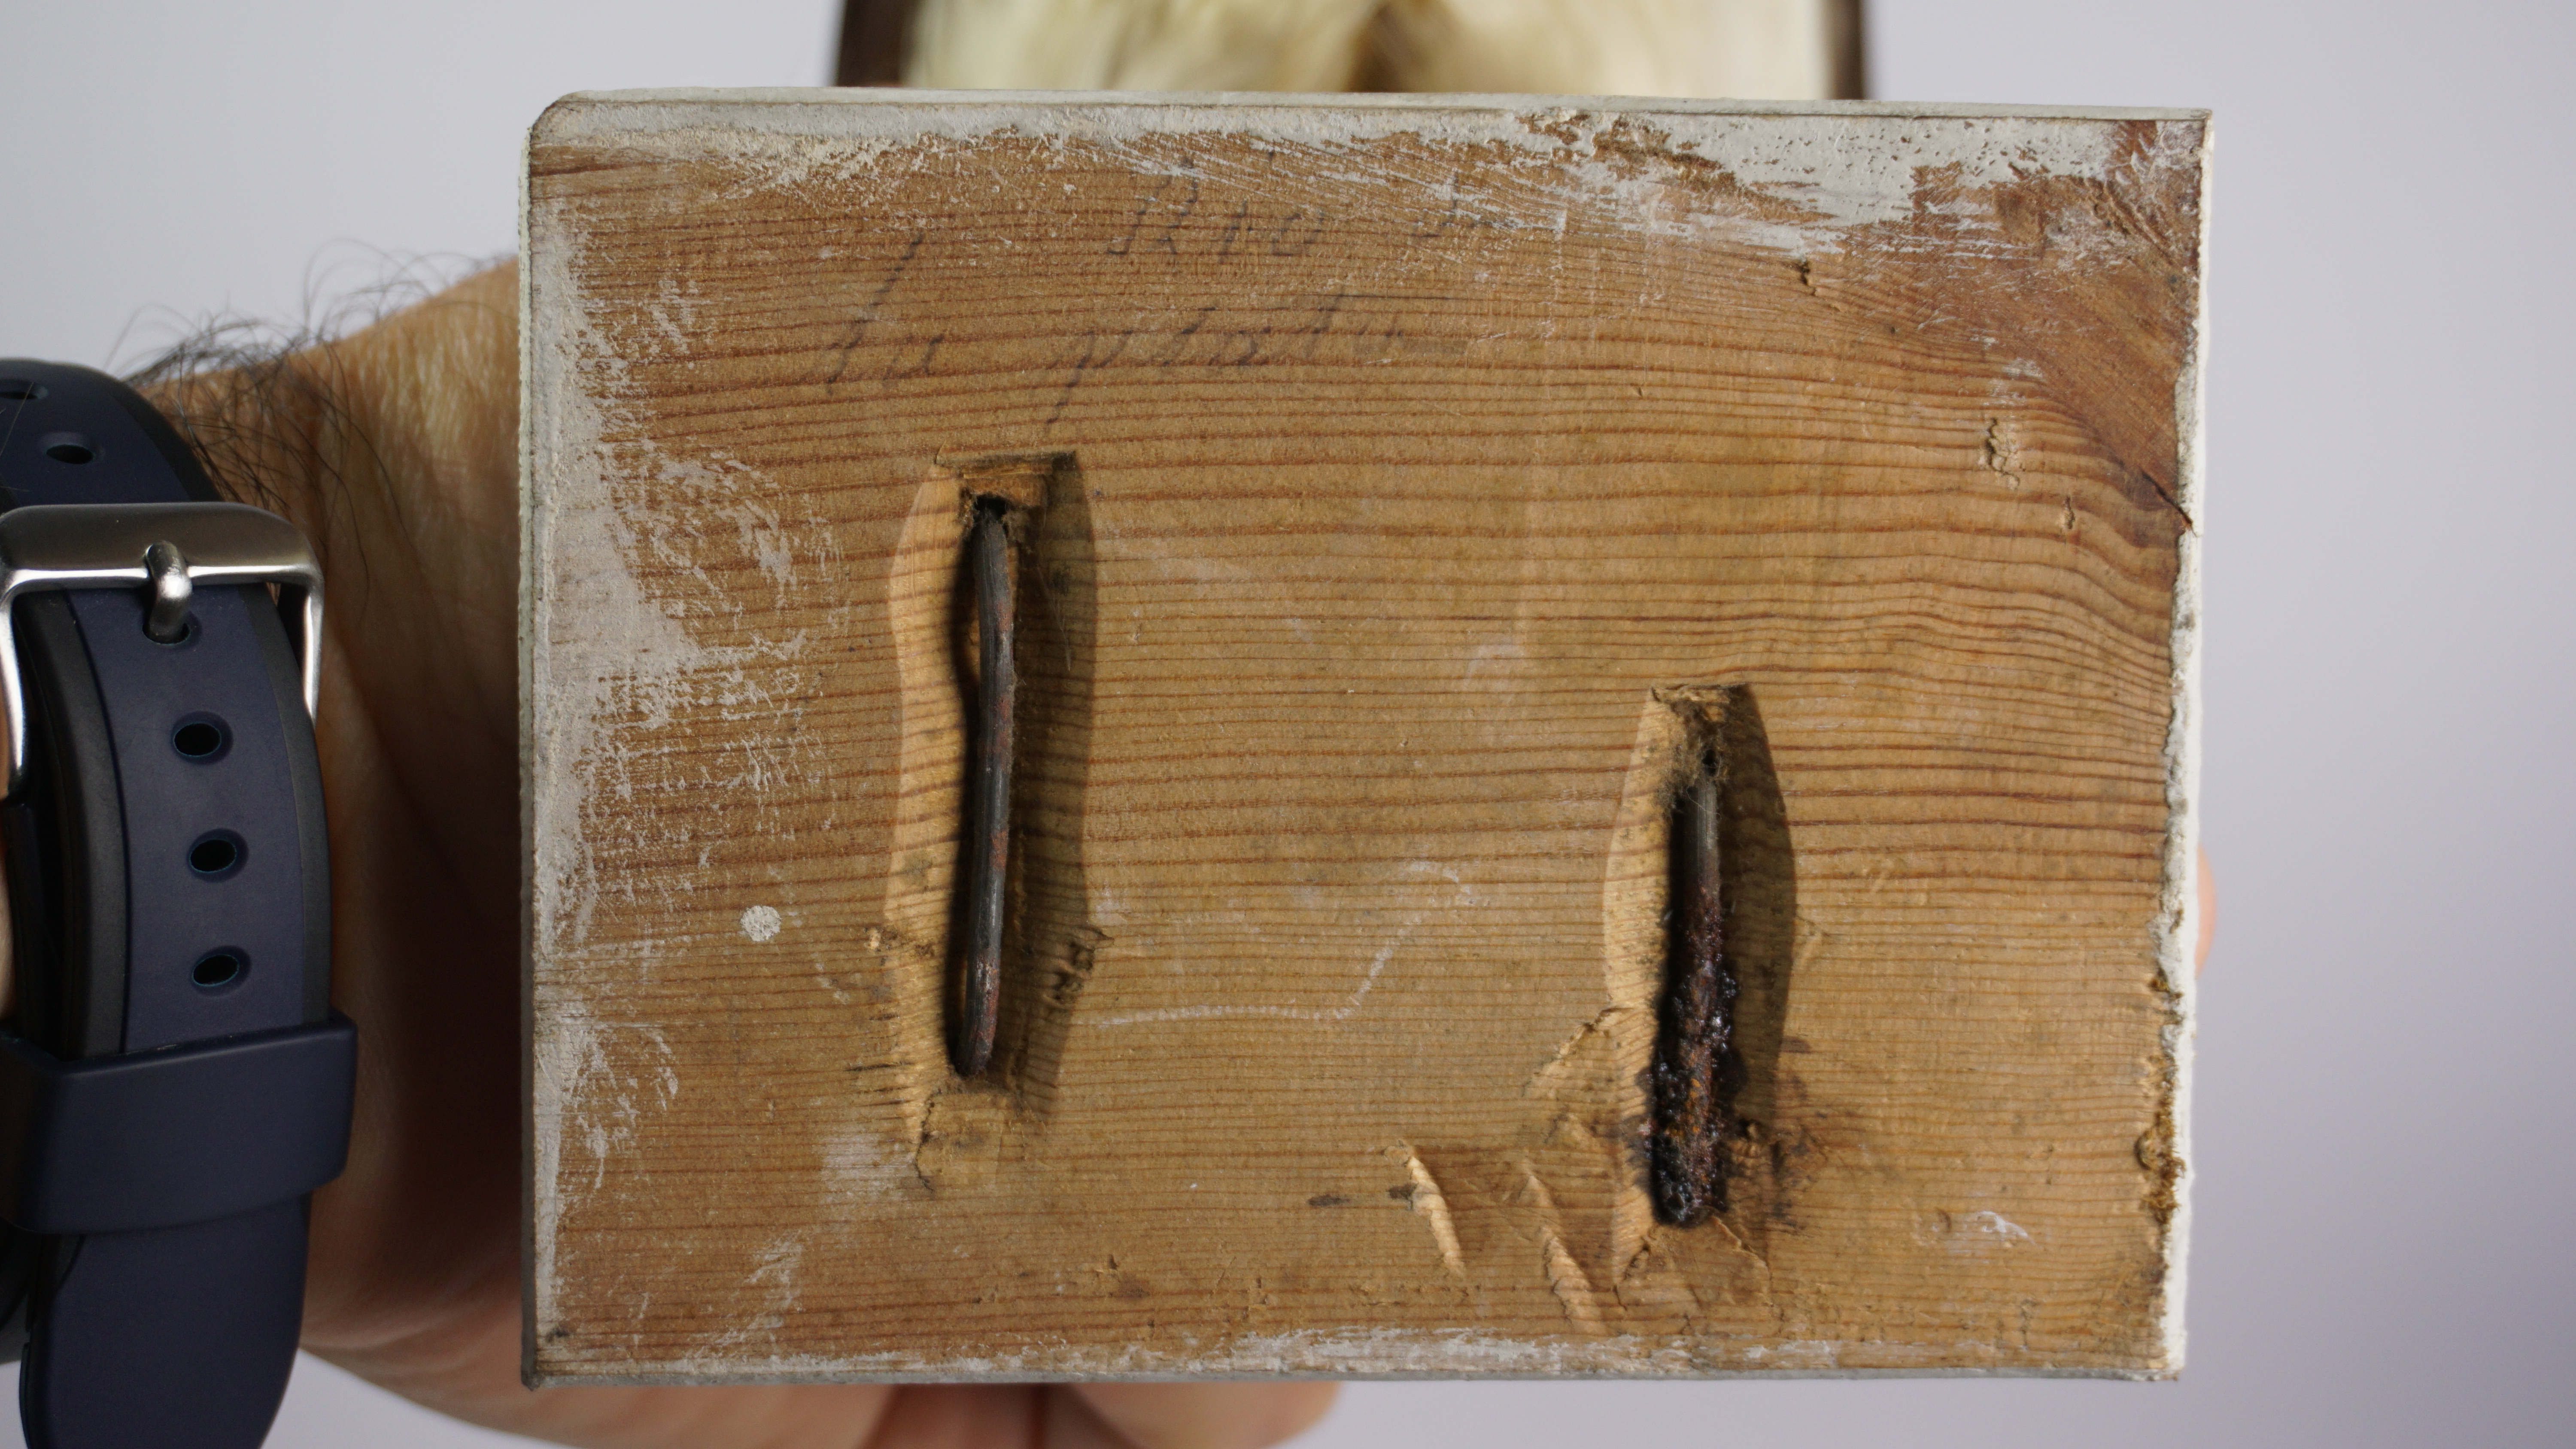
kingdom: Animalia
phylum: Chordata
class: Aves
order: Charadriiformes
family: Laridae
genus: Rynchops
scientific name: Rynchops niger
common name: Black skimmer
